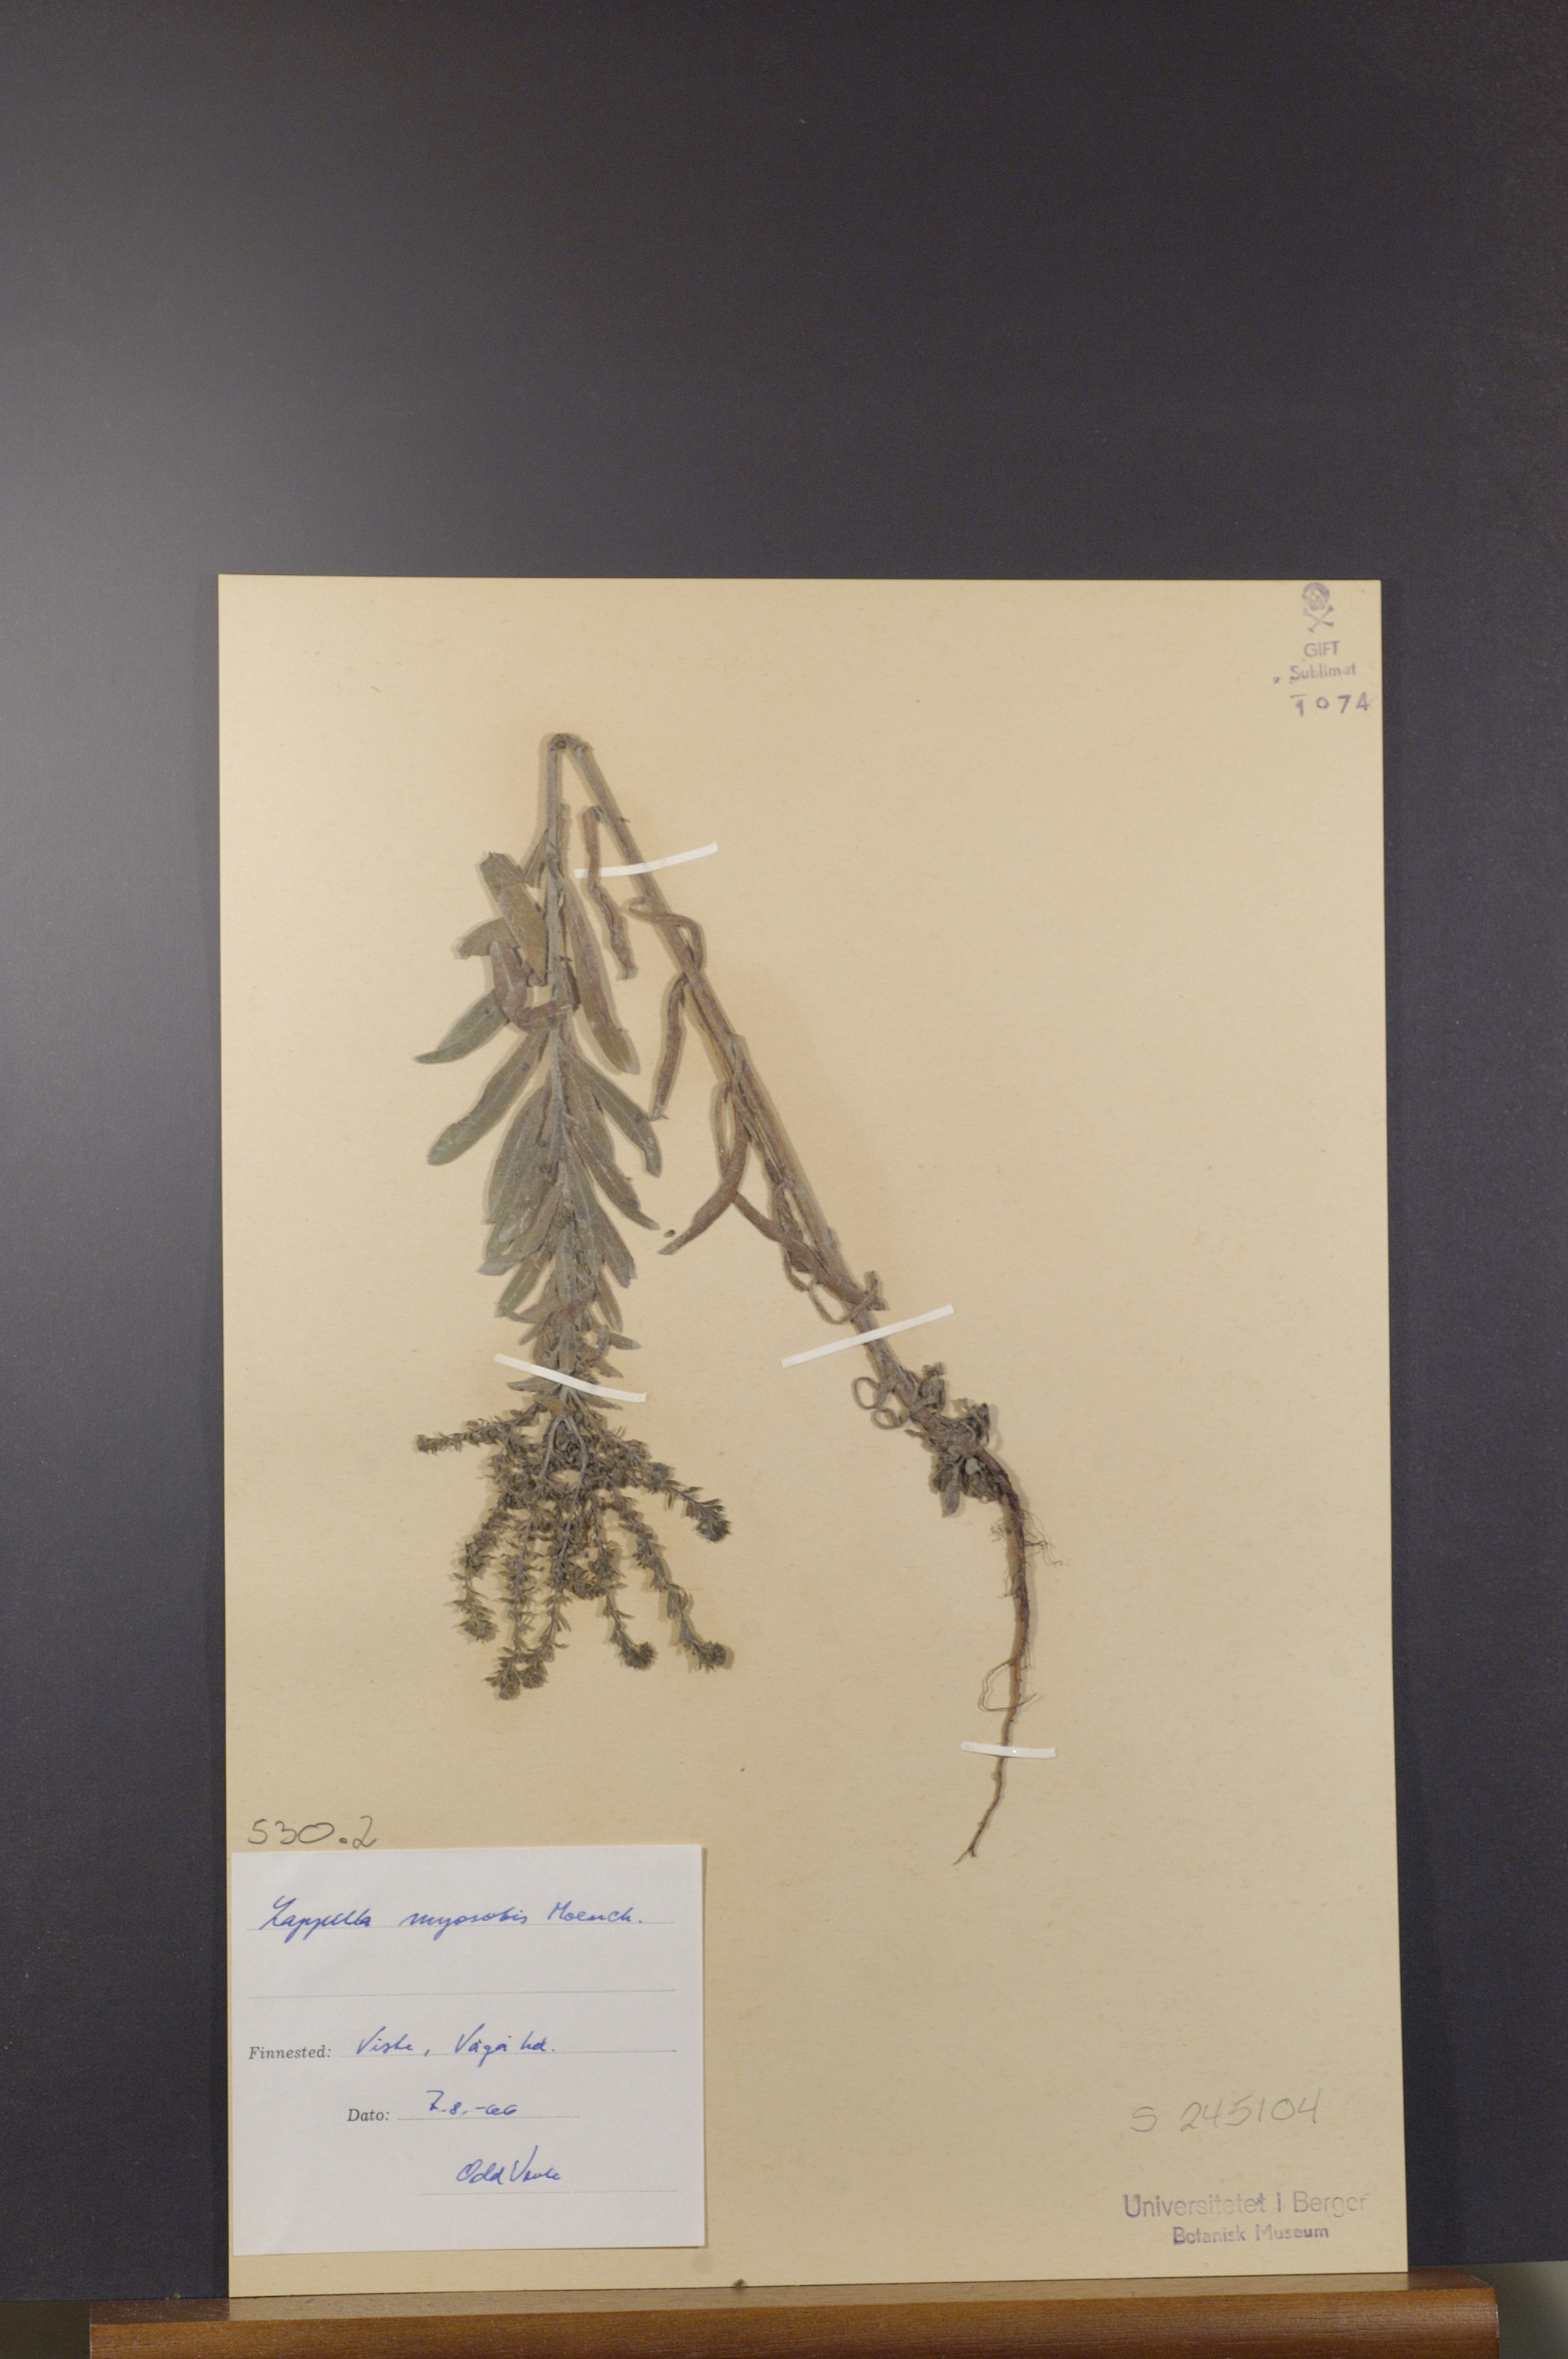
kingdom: Plantae
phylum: Tracheophyta
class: Magnoliopsida
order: Boraginales
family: Boraginaceae
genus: Lappula
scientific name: Lappula squarrosa
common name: European stickseed
